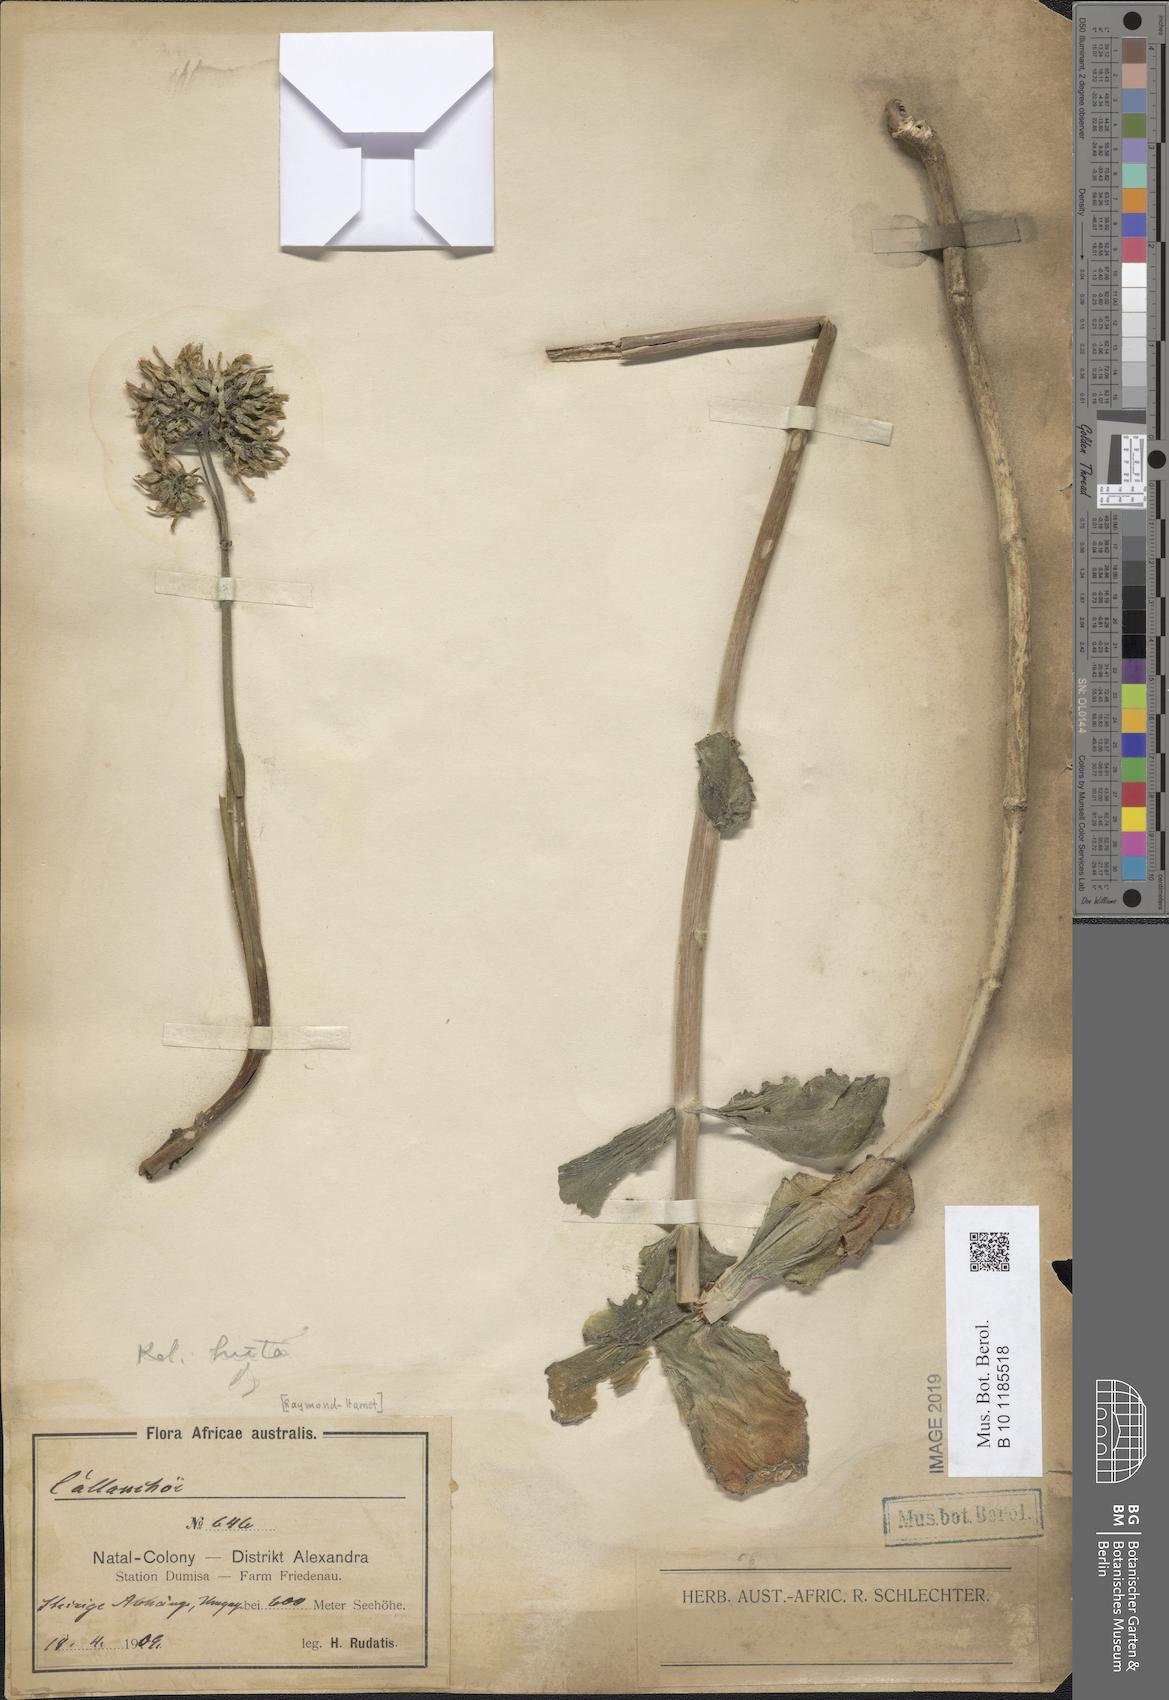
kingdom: Plantae
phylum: Tracheophyta
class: Magnoliopsida
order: Saxifragales
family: Crassulaceae
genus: Kalanchoe
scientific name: Kalanchoe crenata
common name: Neverdie
